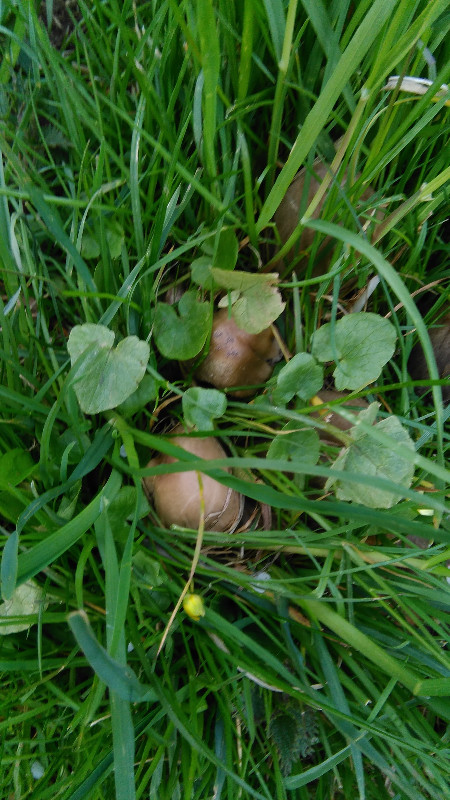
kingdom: Fungi
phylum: Basidiomycota
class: Agaricomycetes
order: Agaricales
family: Psathyrellaceae
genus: Coprinopsis
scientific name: Coprinopsis atramentaria
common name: almindelig blækhat
